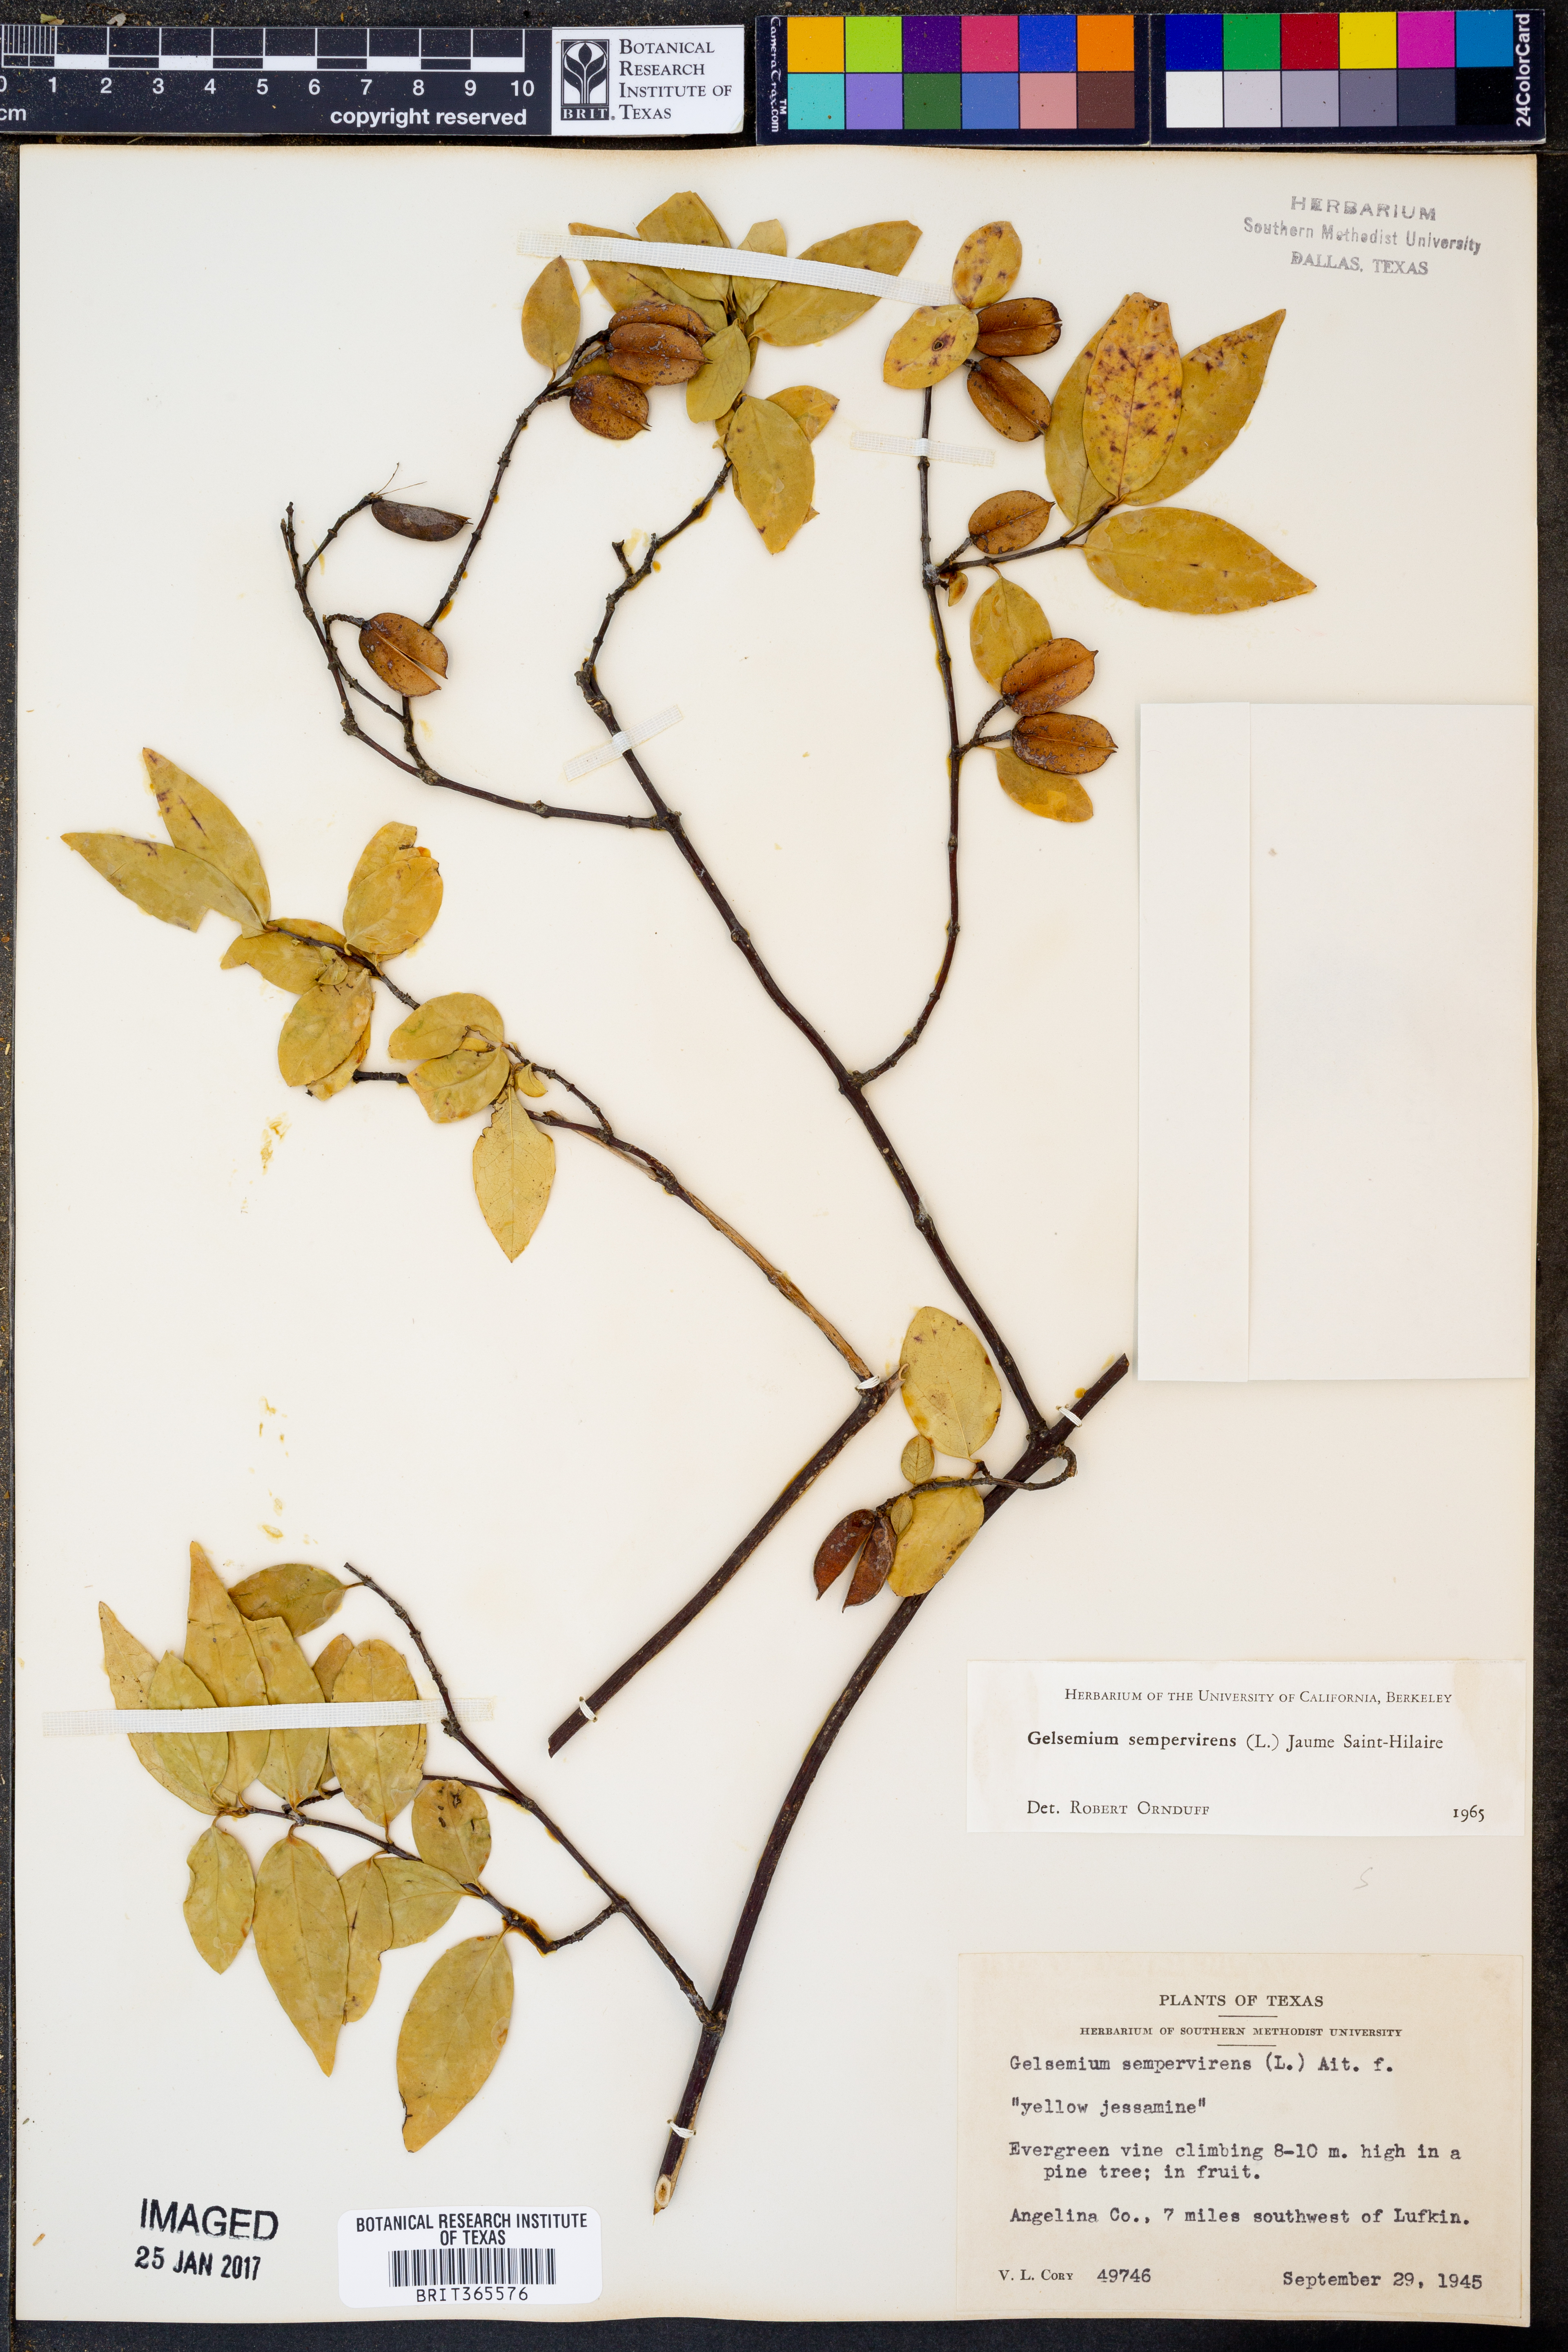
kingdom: Plantae
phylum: Tracheophyta
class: Magnoliopsida
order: Gentianales
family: Gelsemiaceae
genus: Gelsemium
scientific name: Gelsemium sempervirens
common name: Carolina-jasmine
